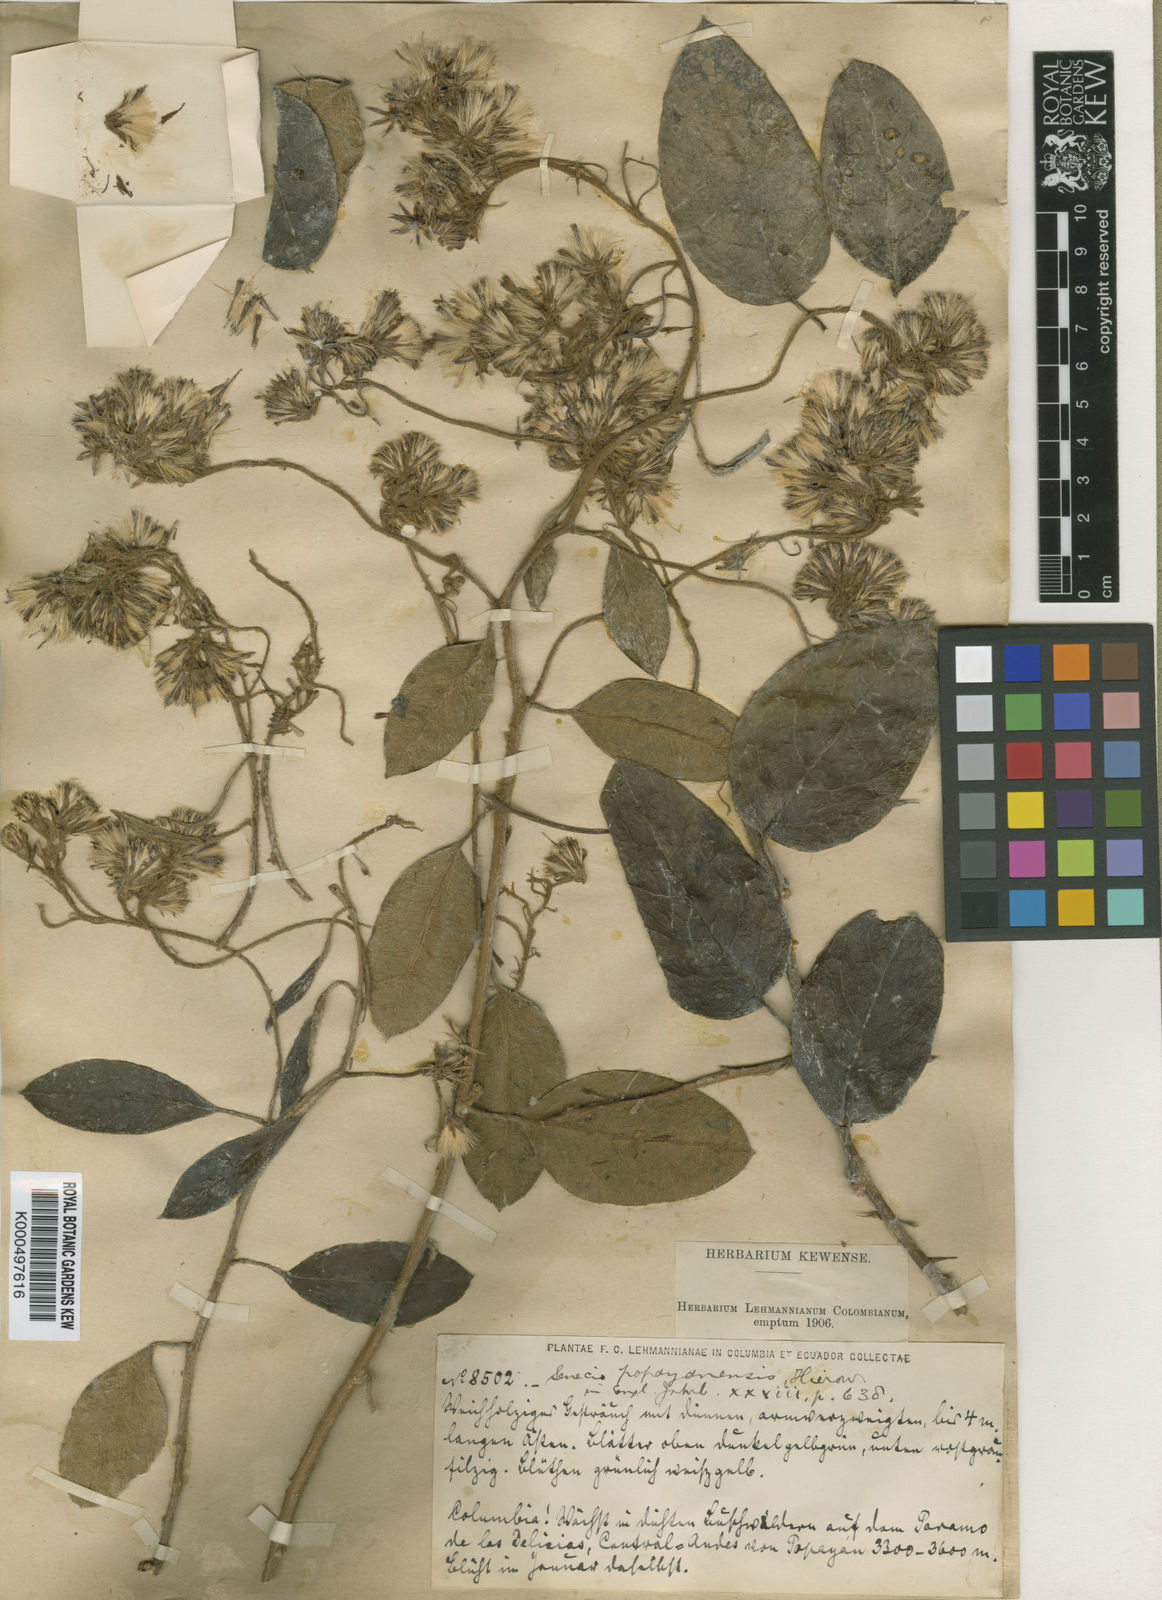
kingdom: Plantae
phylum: Tracheophyta
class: Magnoliopsida
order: Asterales
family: Asteraceae
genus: Pentacalia
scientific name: Pentacalia popayanensis
